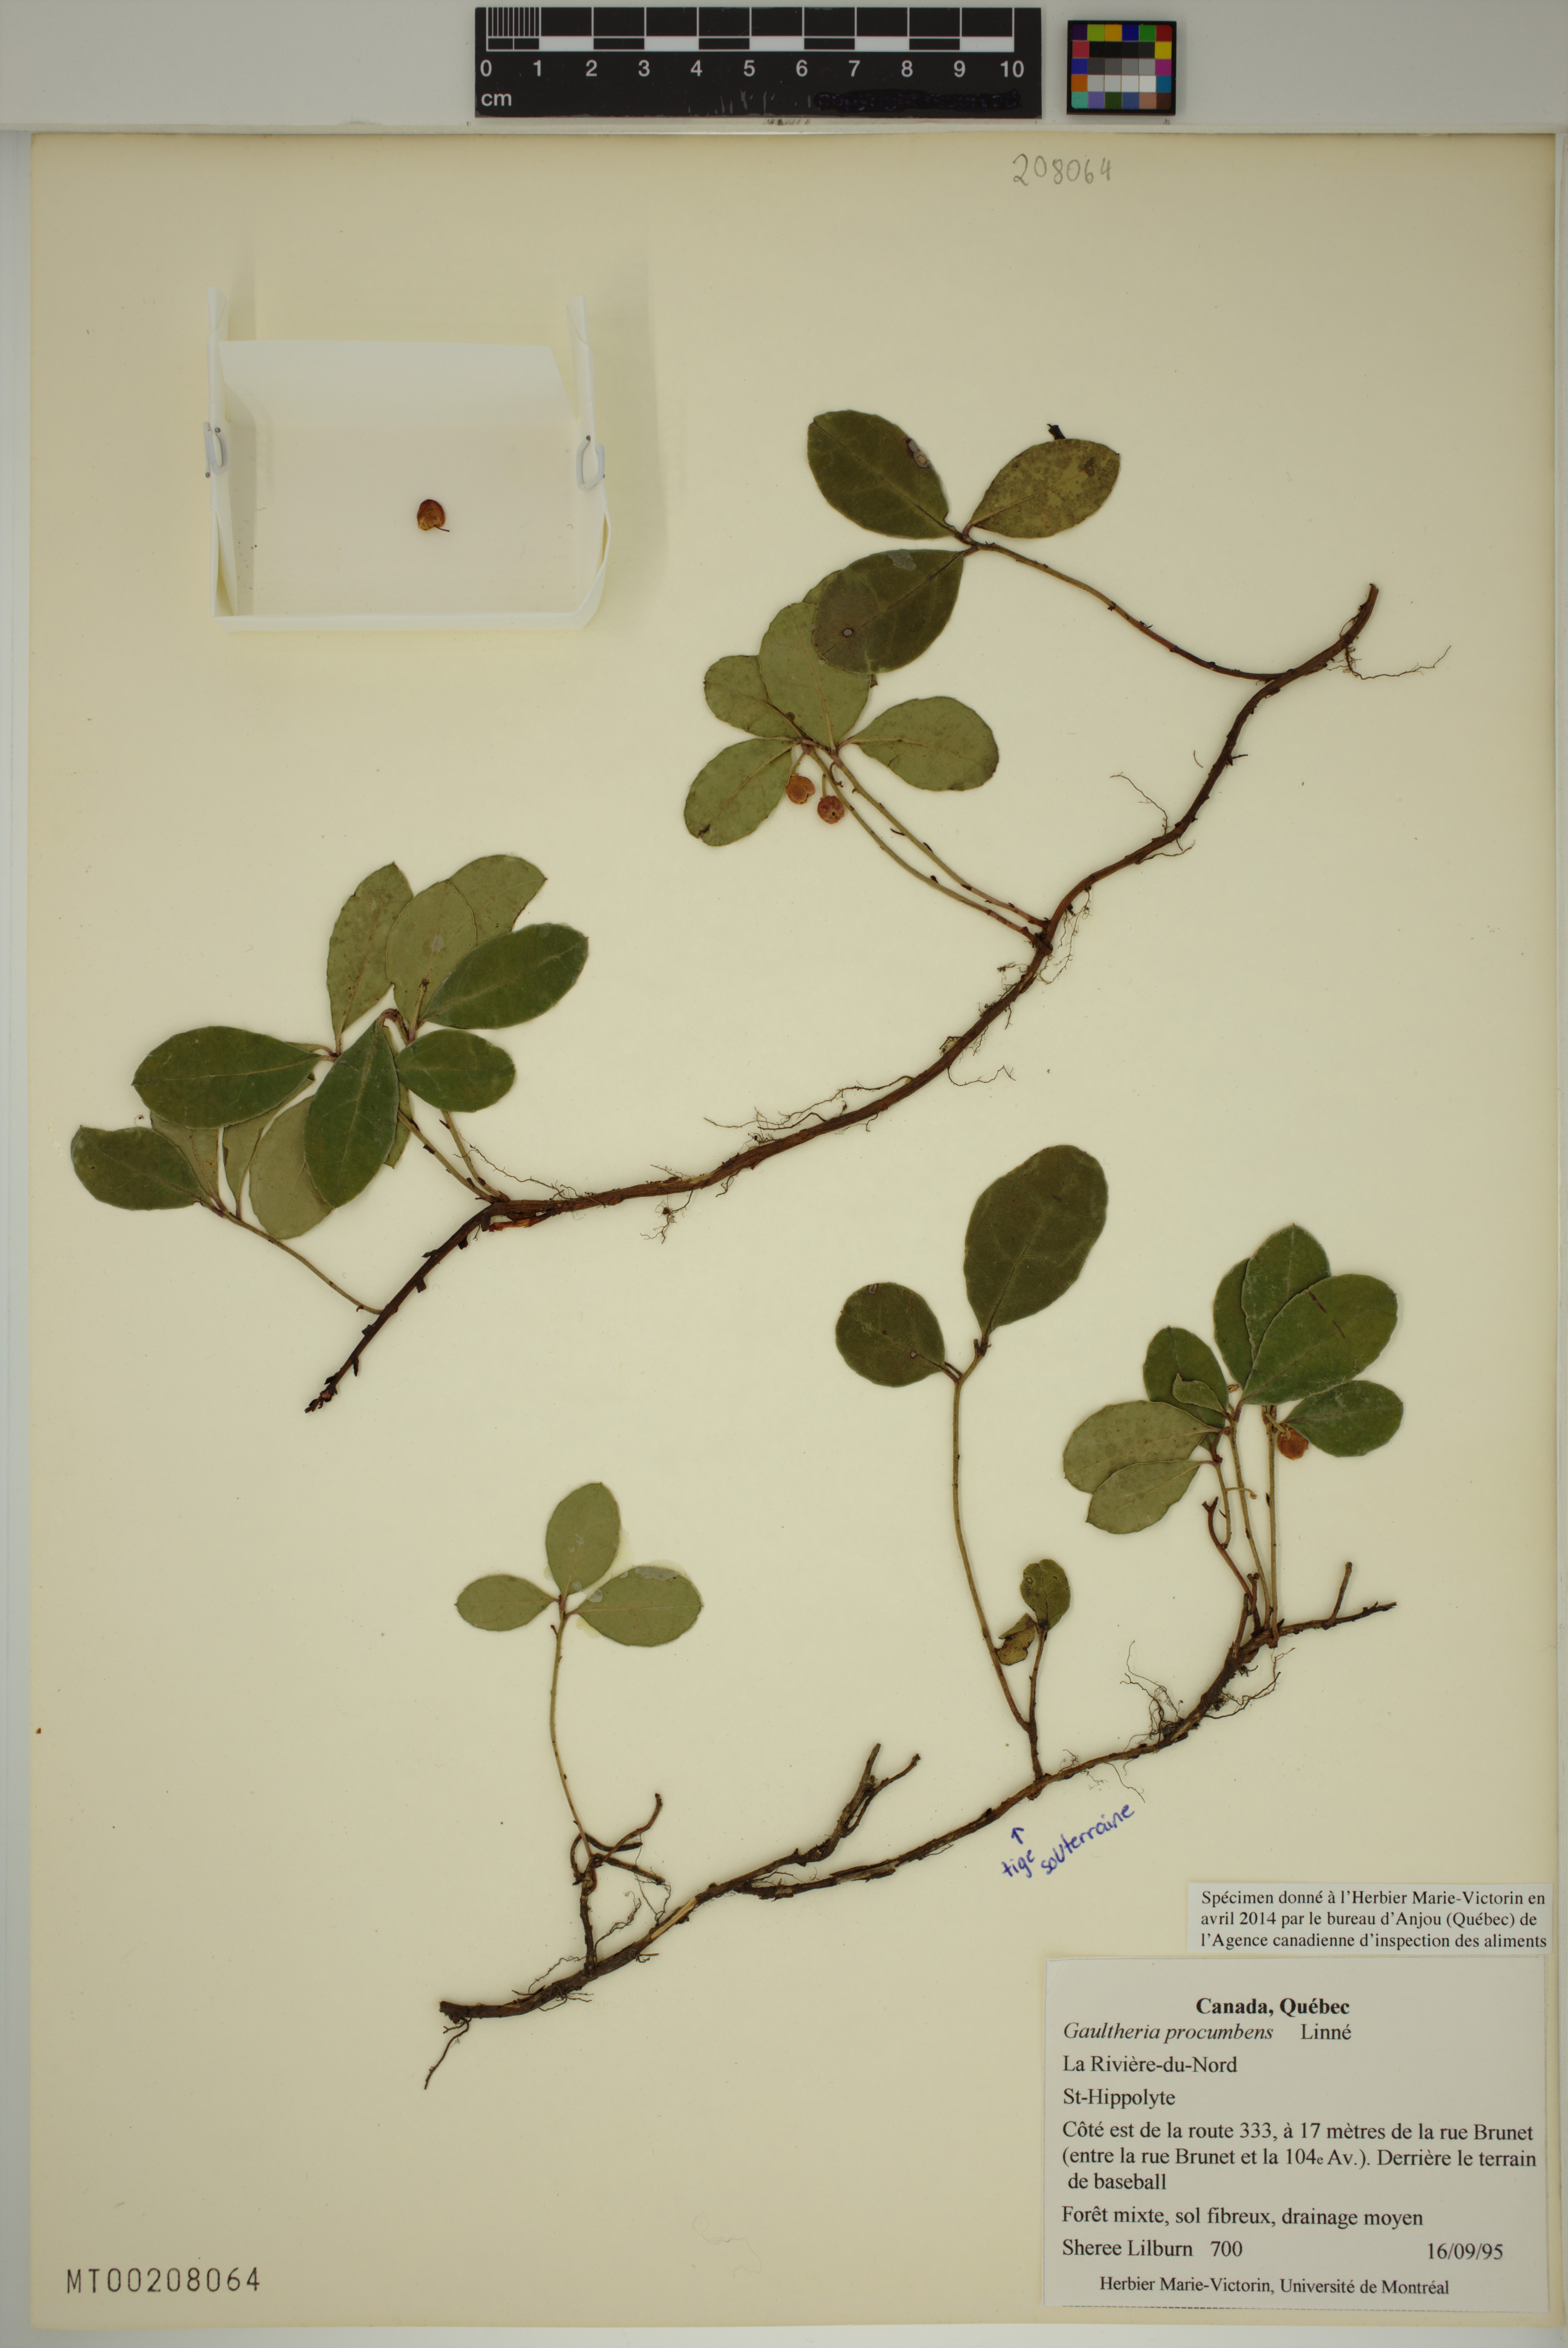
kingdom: Plantae
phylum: Tracheophyta
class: Magnoliopsida
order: Ericales
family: Ericaceae
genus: Gaultheria
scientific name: Gaultheria procumbens
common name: Checkerberry
